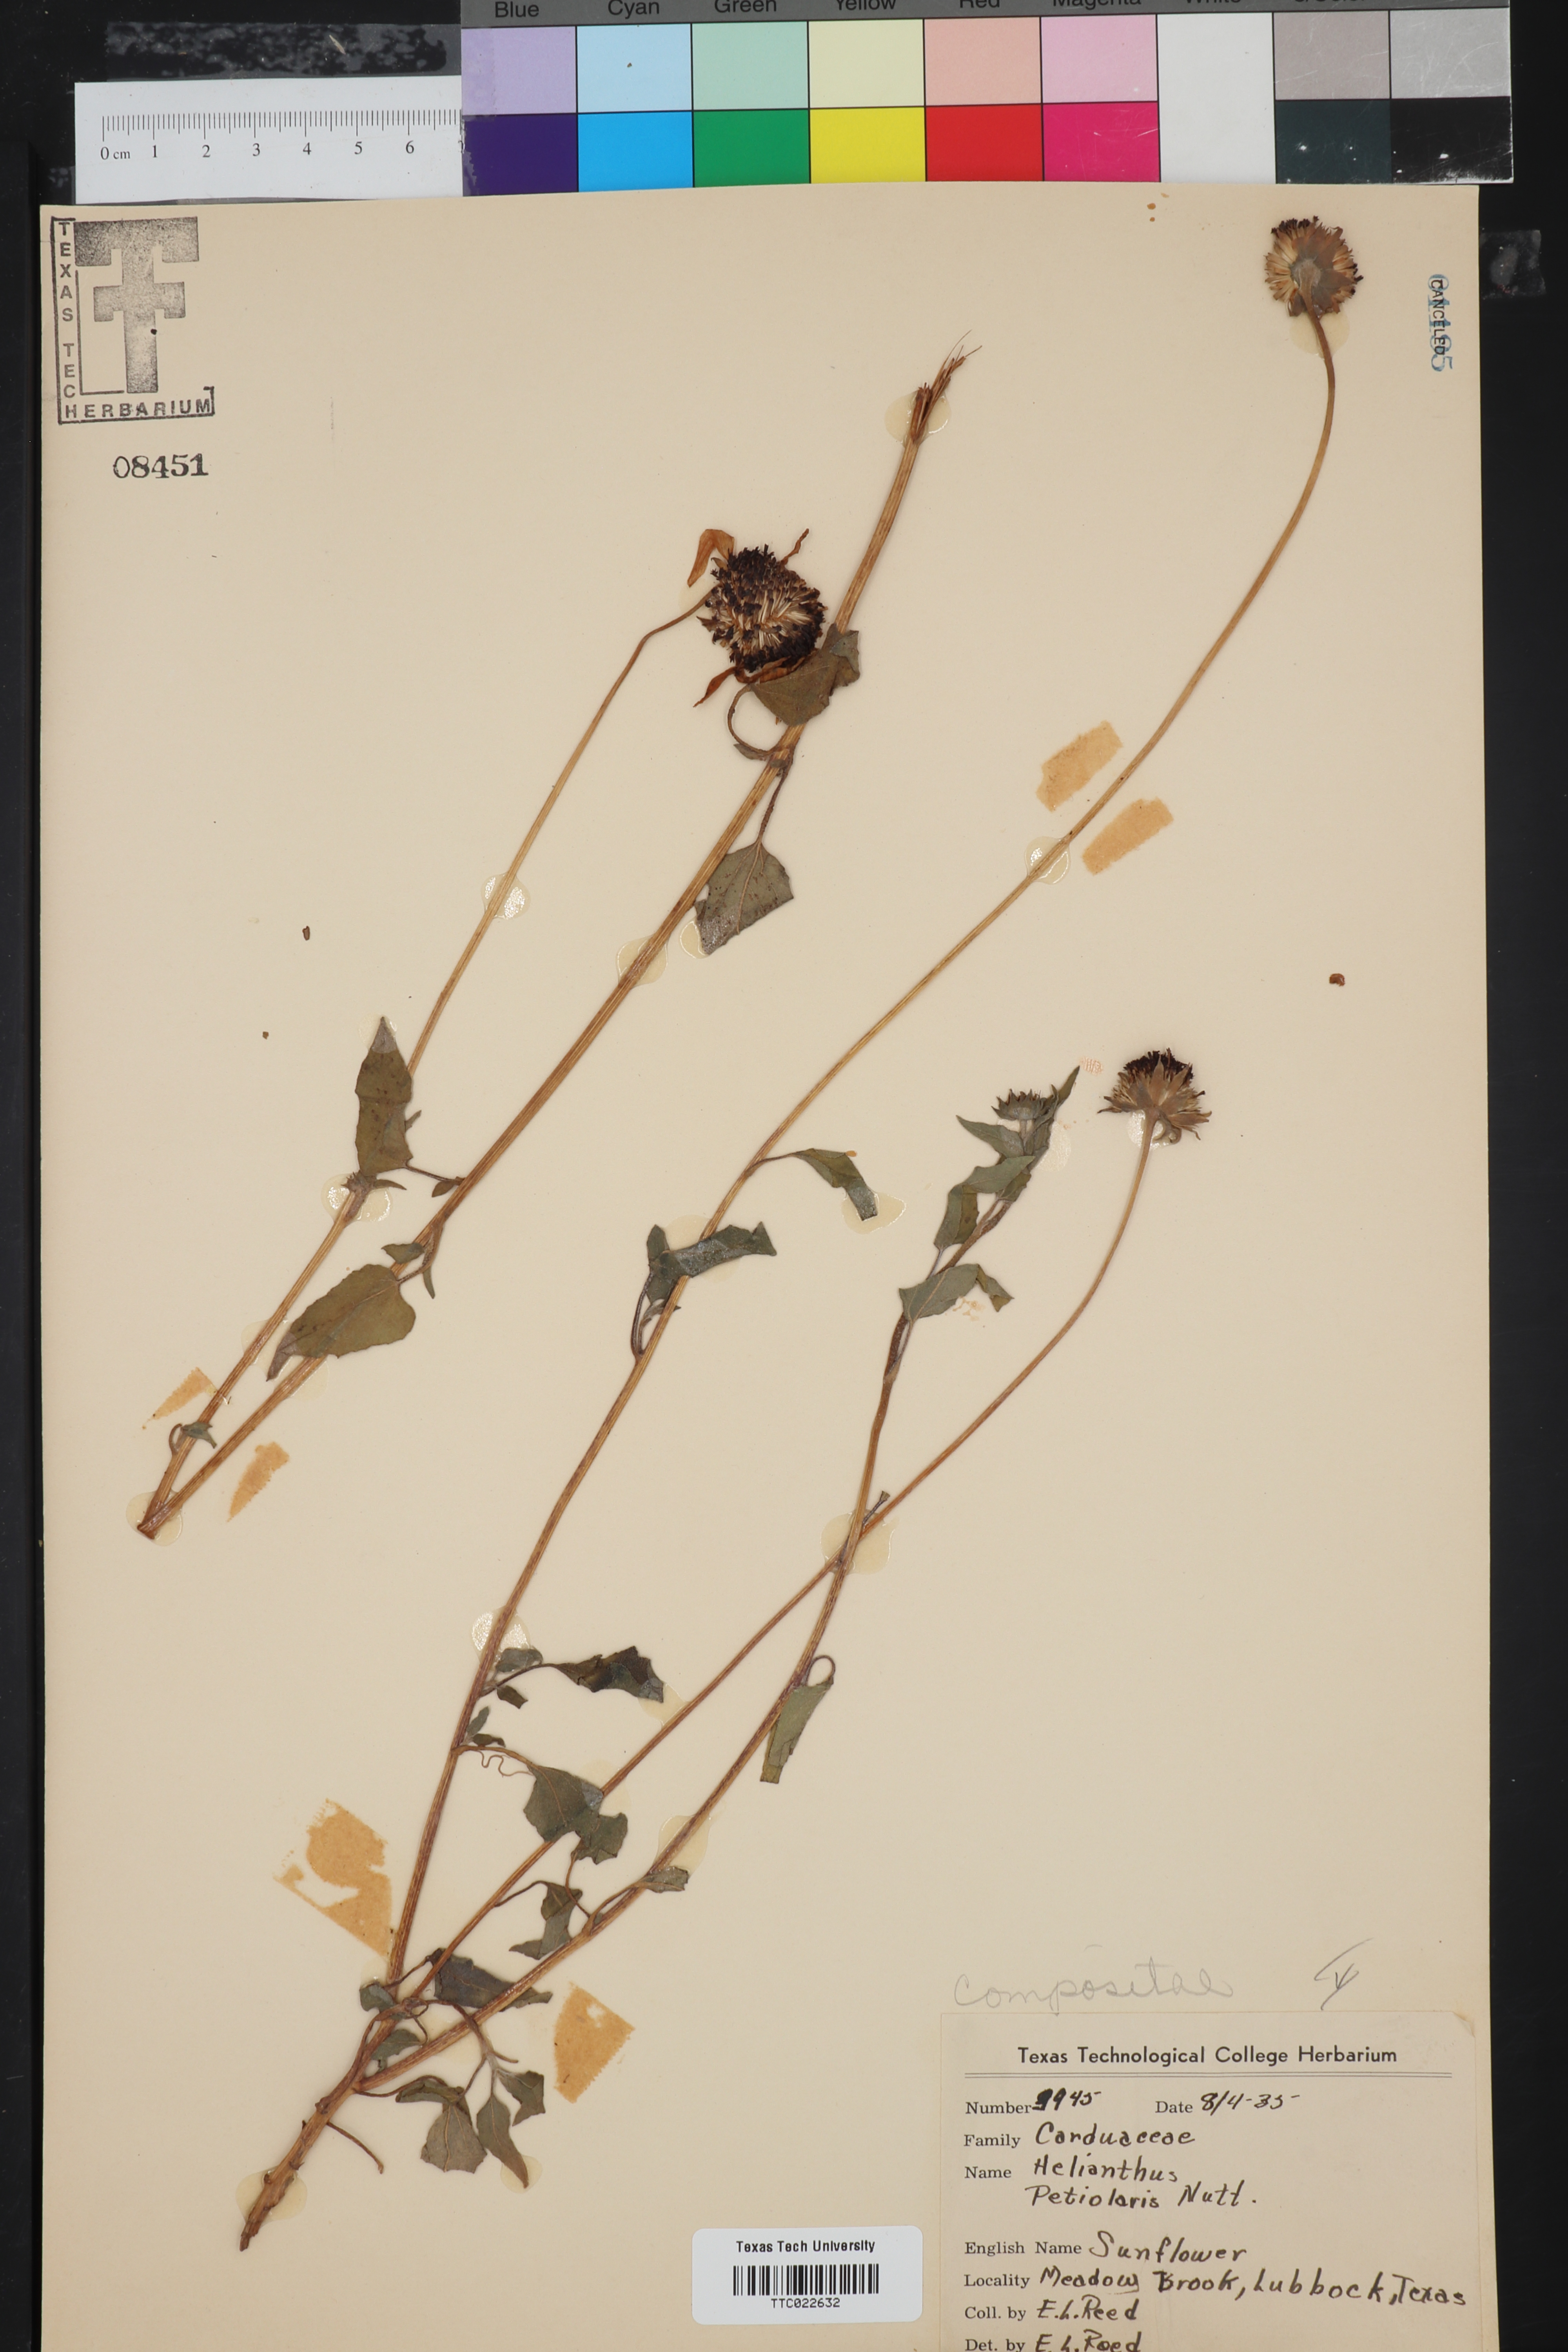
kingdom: Plantae
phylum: Tracheophyta
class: Magnoliopsida
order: Asterales
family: Asteraceae
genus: Helianthus
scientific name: Helianthus petiolaris
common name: Lesser sunflower
